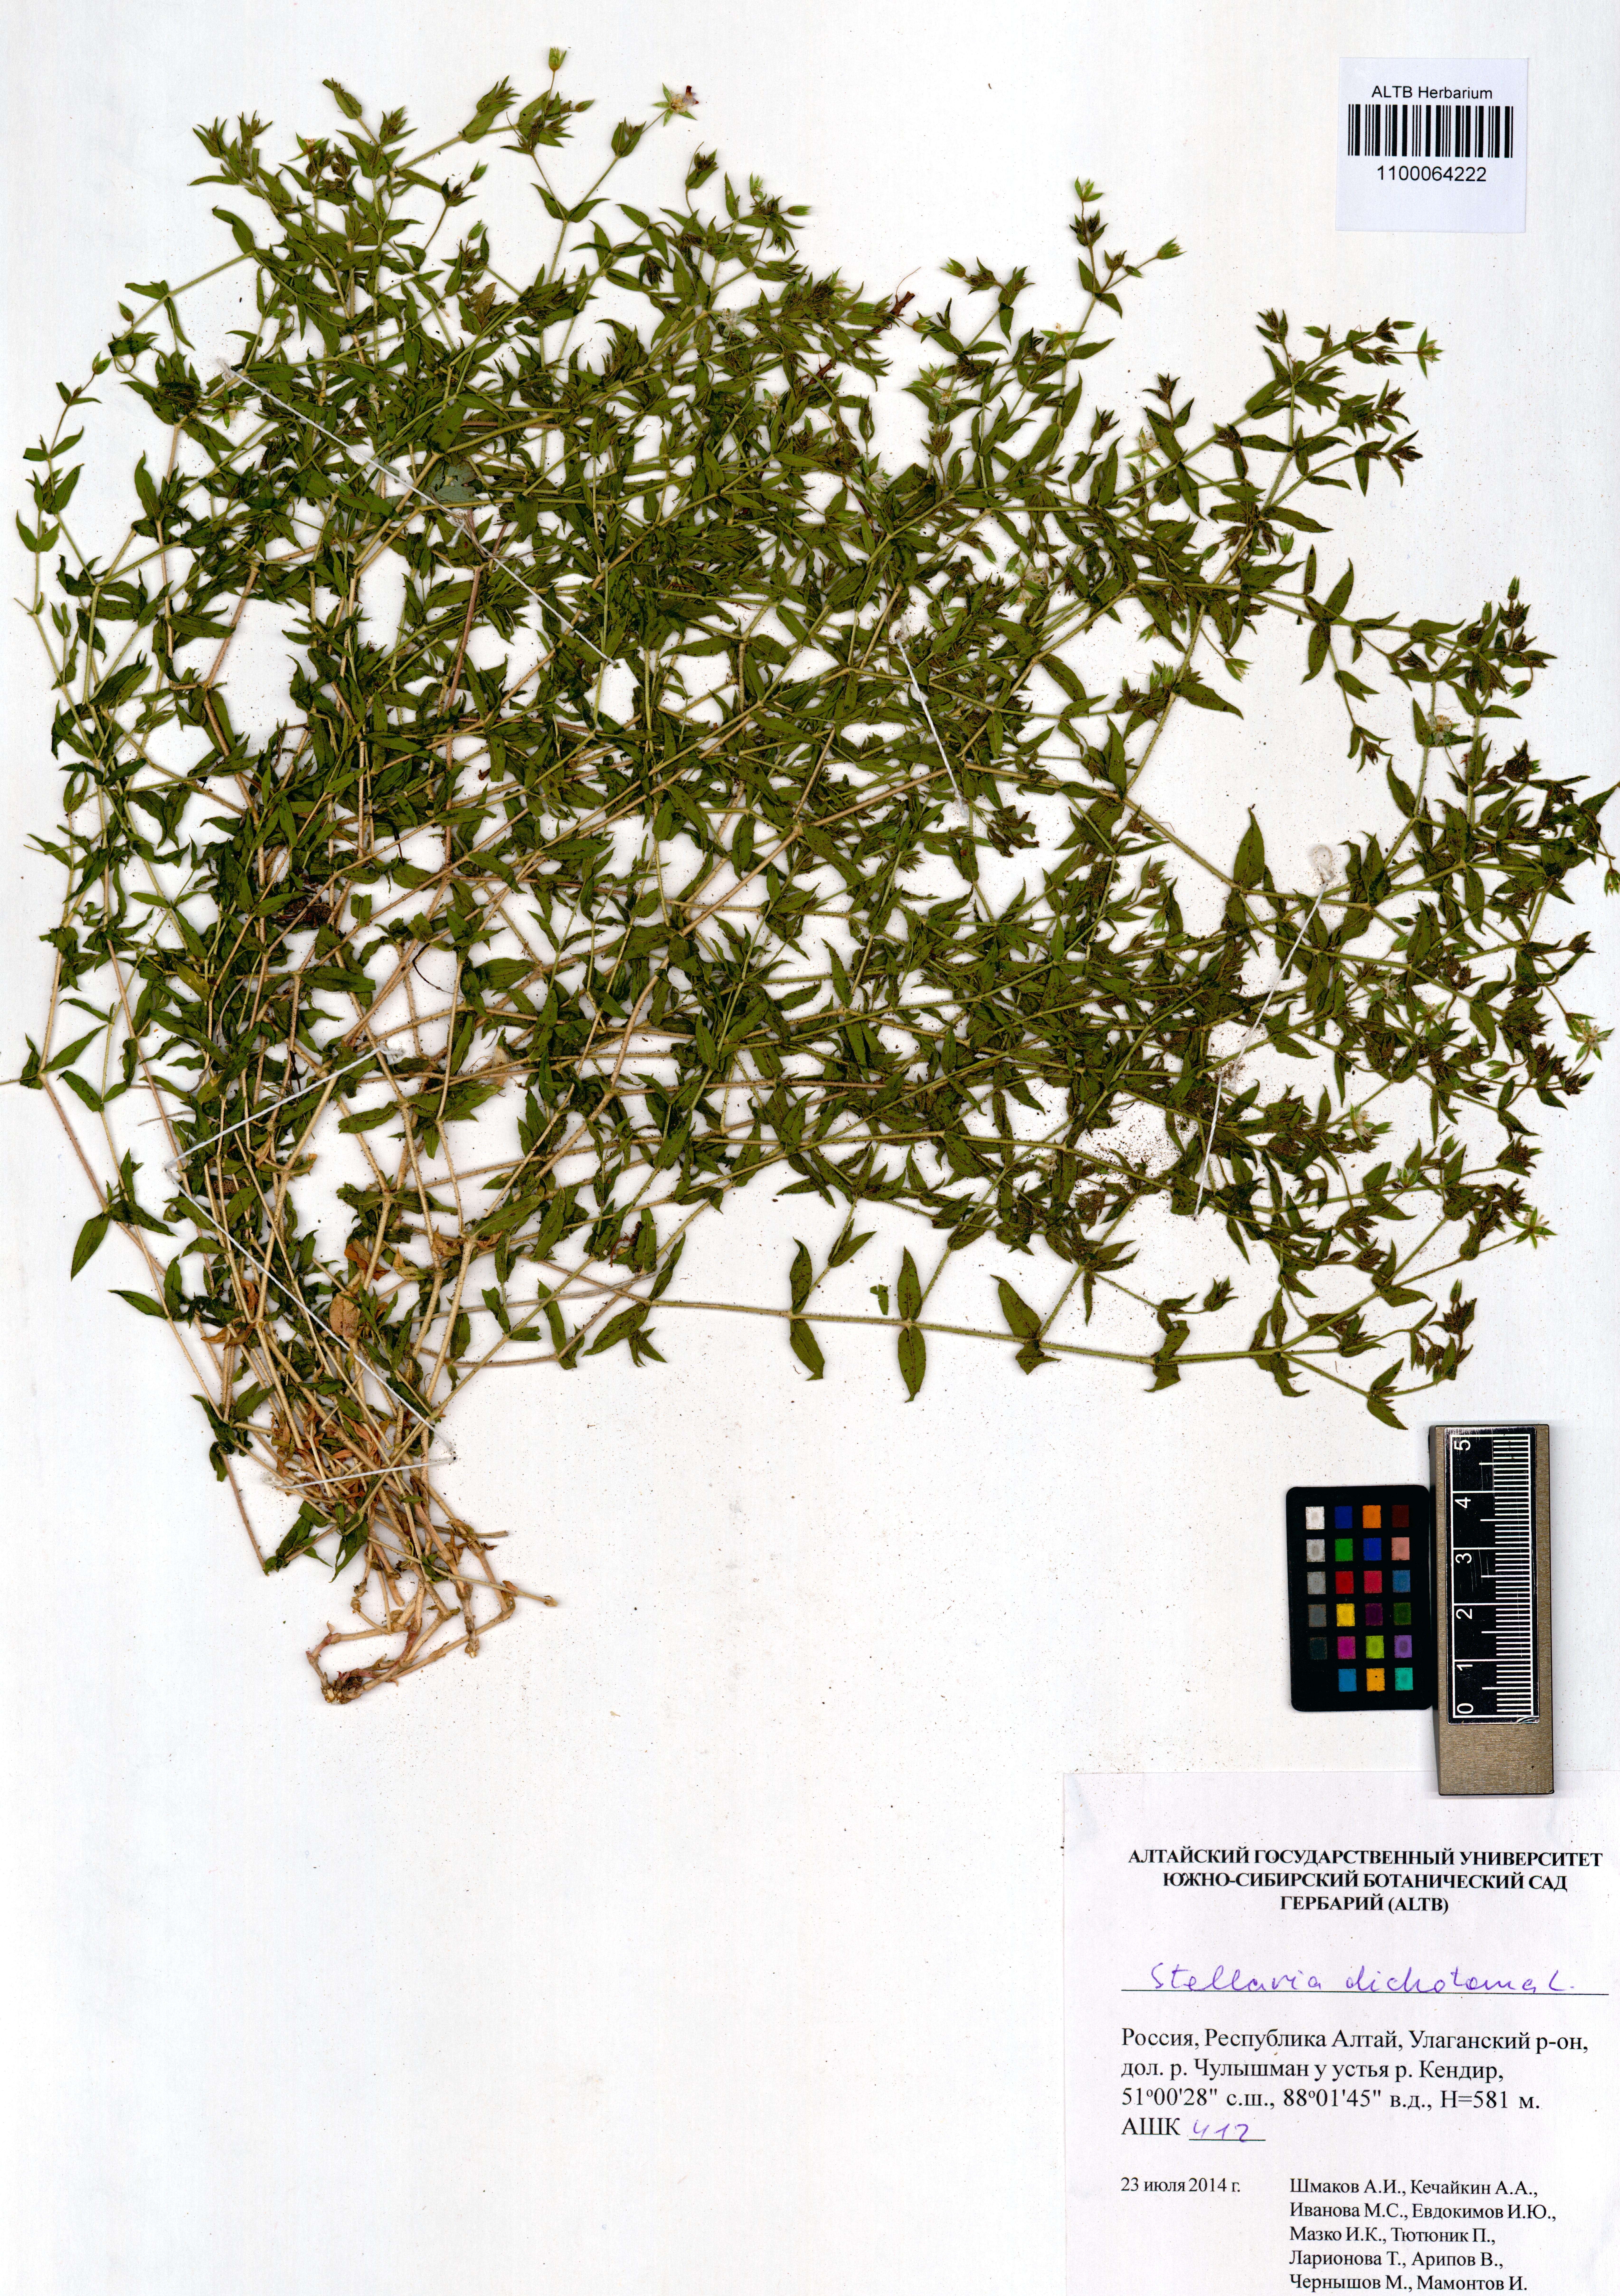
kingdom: Plantae
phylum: Tracheophyta
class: Magnoliopsida
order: Caryophyllales
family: Caryophyllaceae
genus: Mesostemma
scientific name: Mesostemma dichotomum
